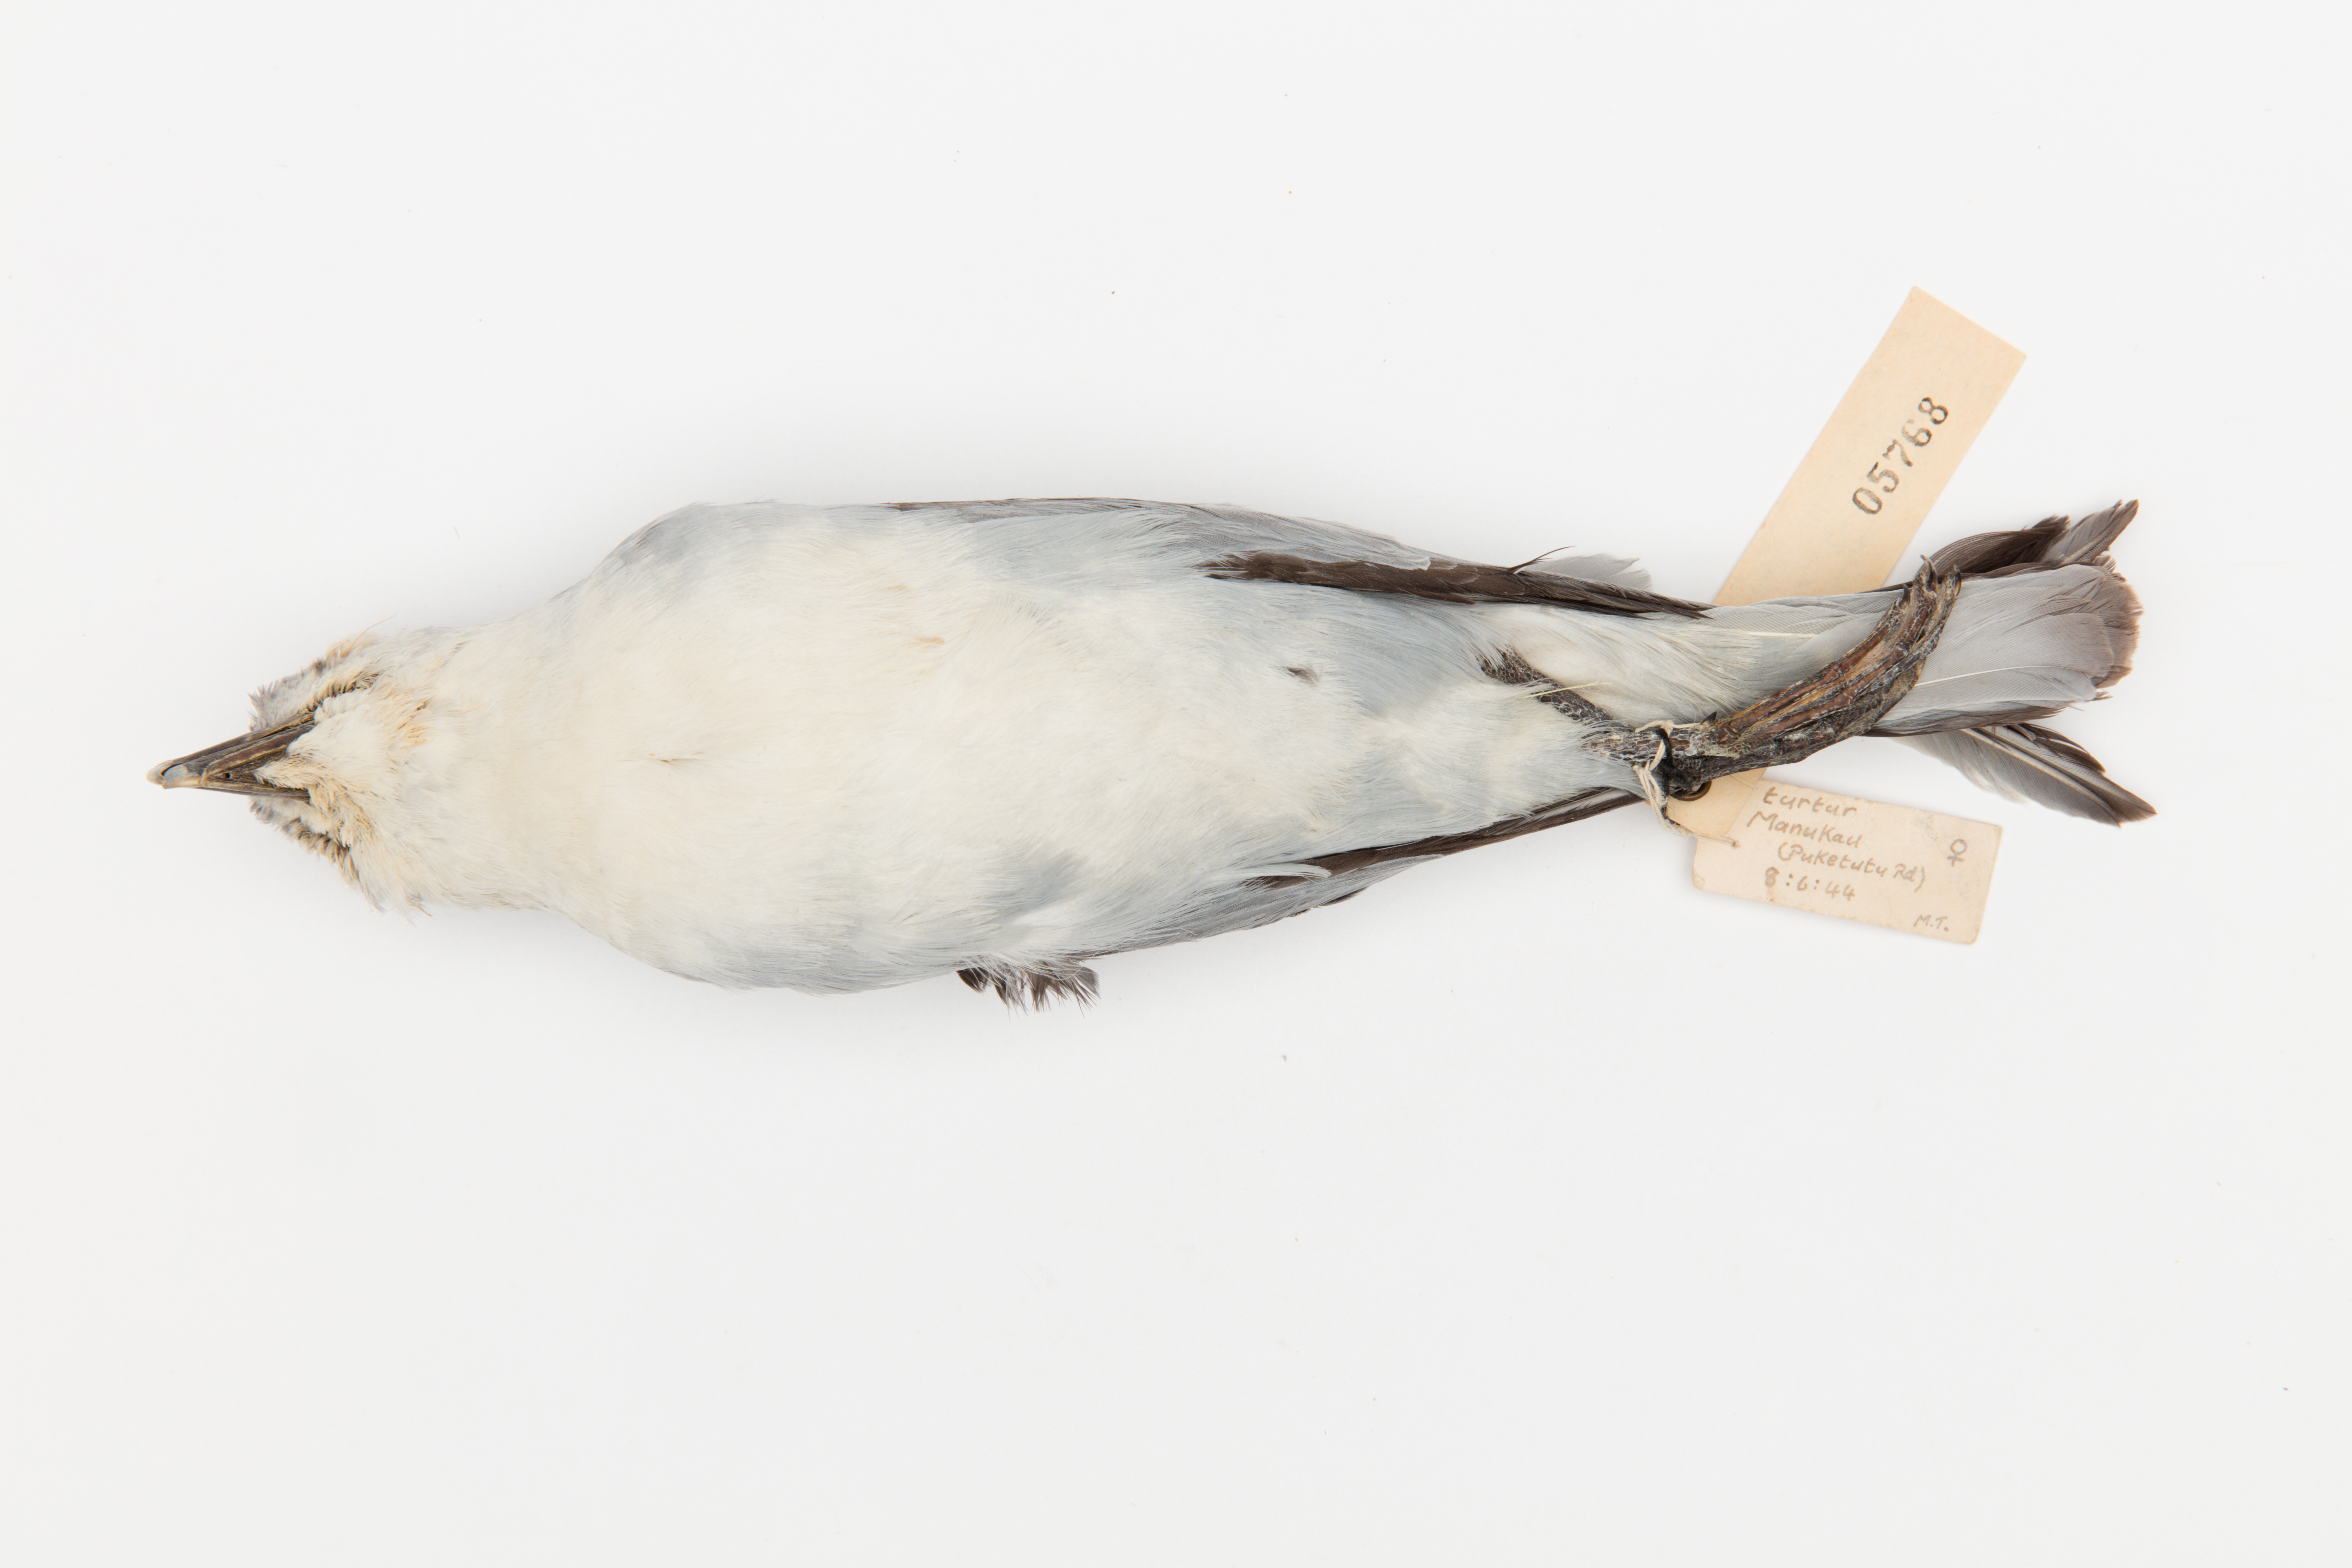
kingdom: Animalia
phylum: Chordata
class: Aves
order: Procellariiformes
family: Procellariidae
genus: Pachyptila
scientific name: Pachyptila turtur
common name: Fairy prion
